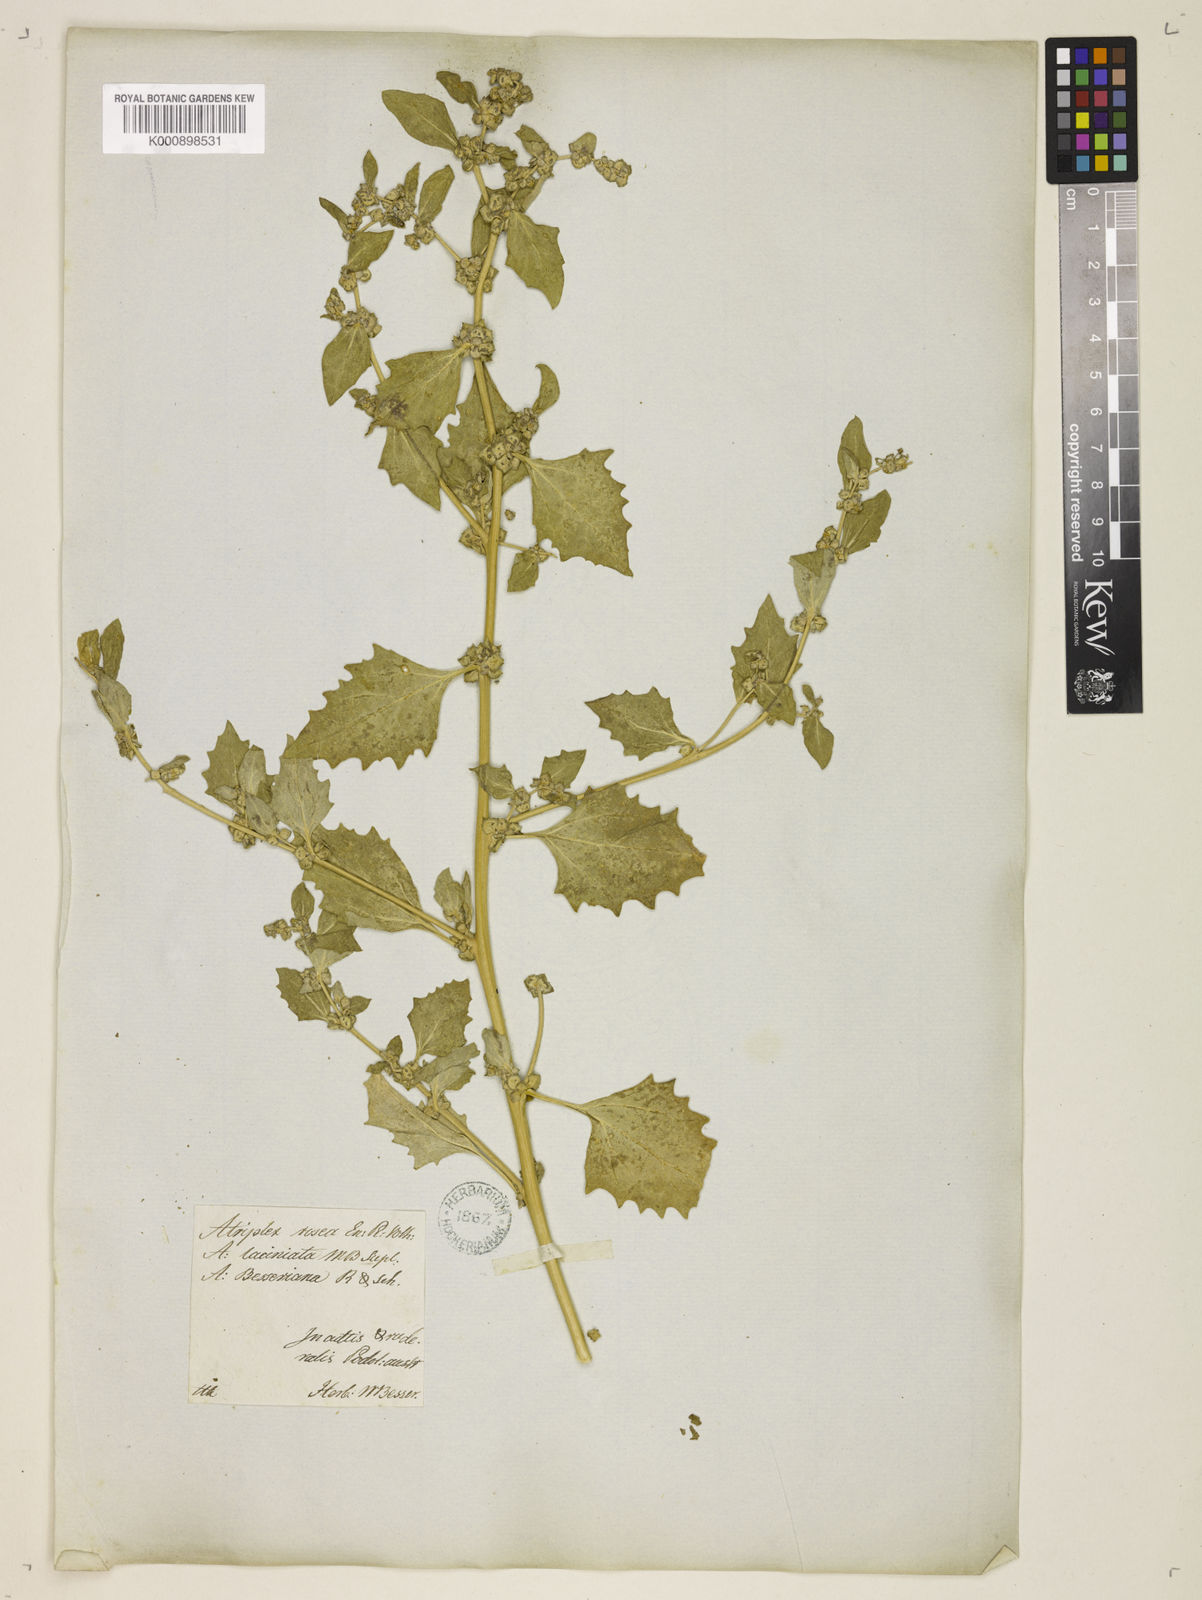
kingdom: Plantae
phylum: Tracheophyta
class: Magnoliopsida
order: Caryophyllales
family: Amaranthaceae
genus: Atriplex
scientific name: Atriplex rosea
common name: Tumbling saltweed
